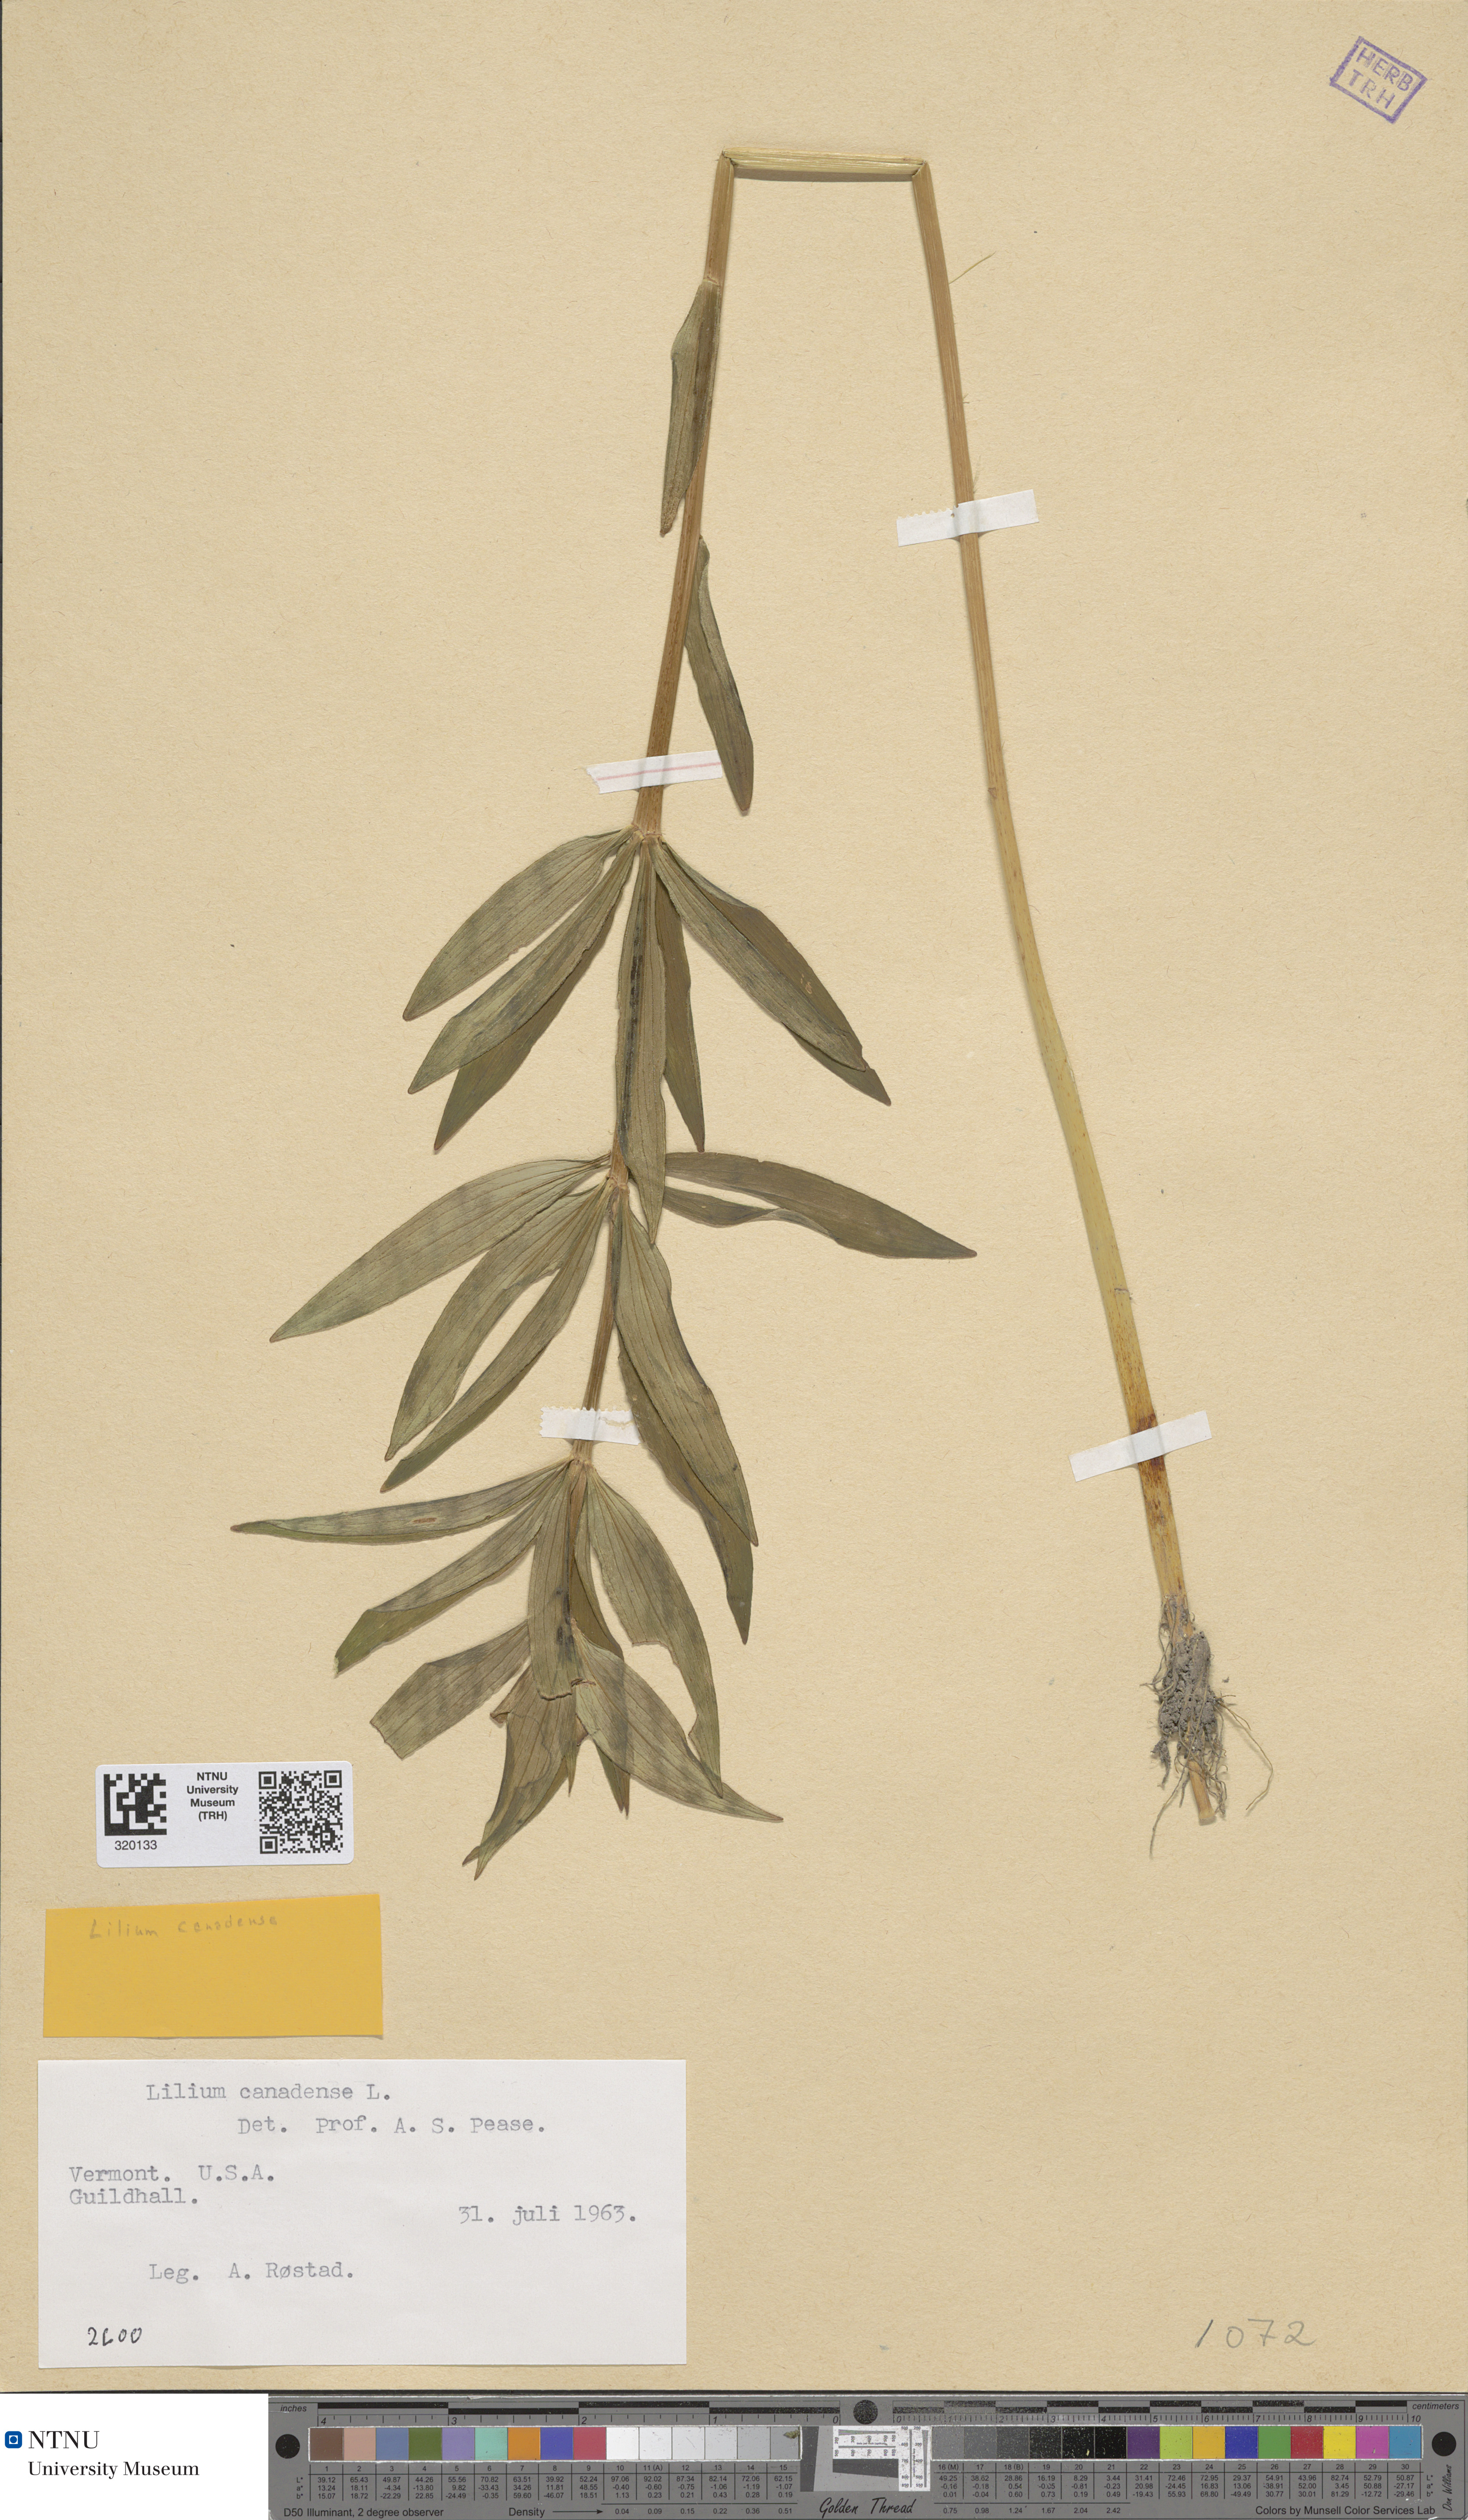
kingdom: Plantae
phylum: Tracheophyta
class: Liliopsida
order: Liliales
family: Liliaceae
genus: Lilium
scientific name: Lilium canadense
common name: Canada lily
